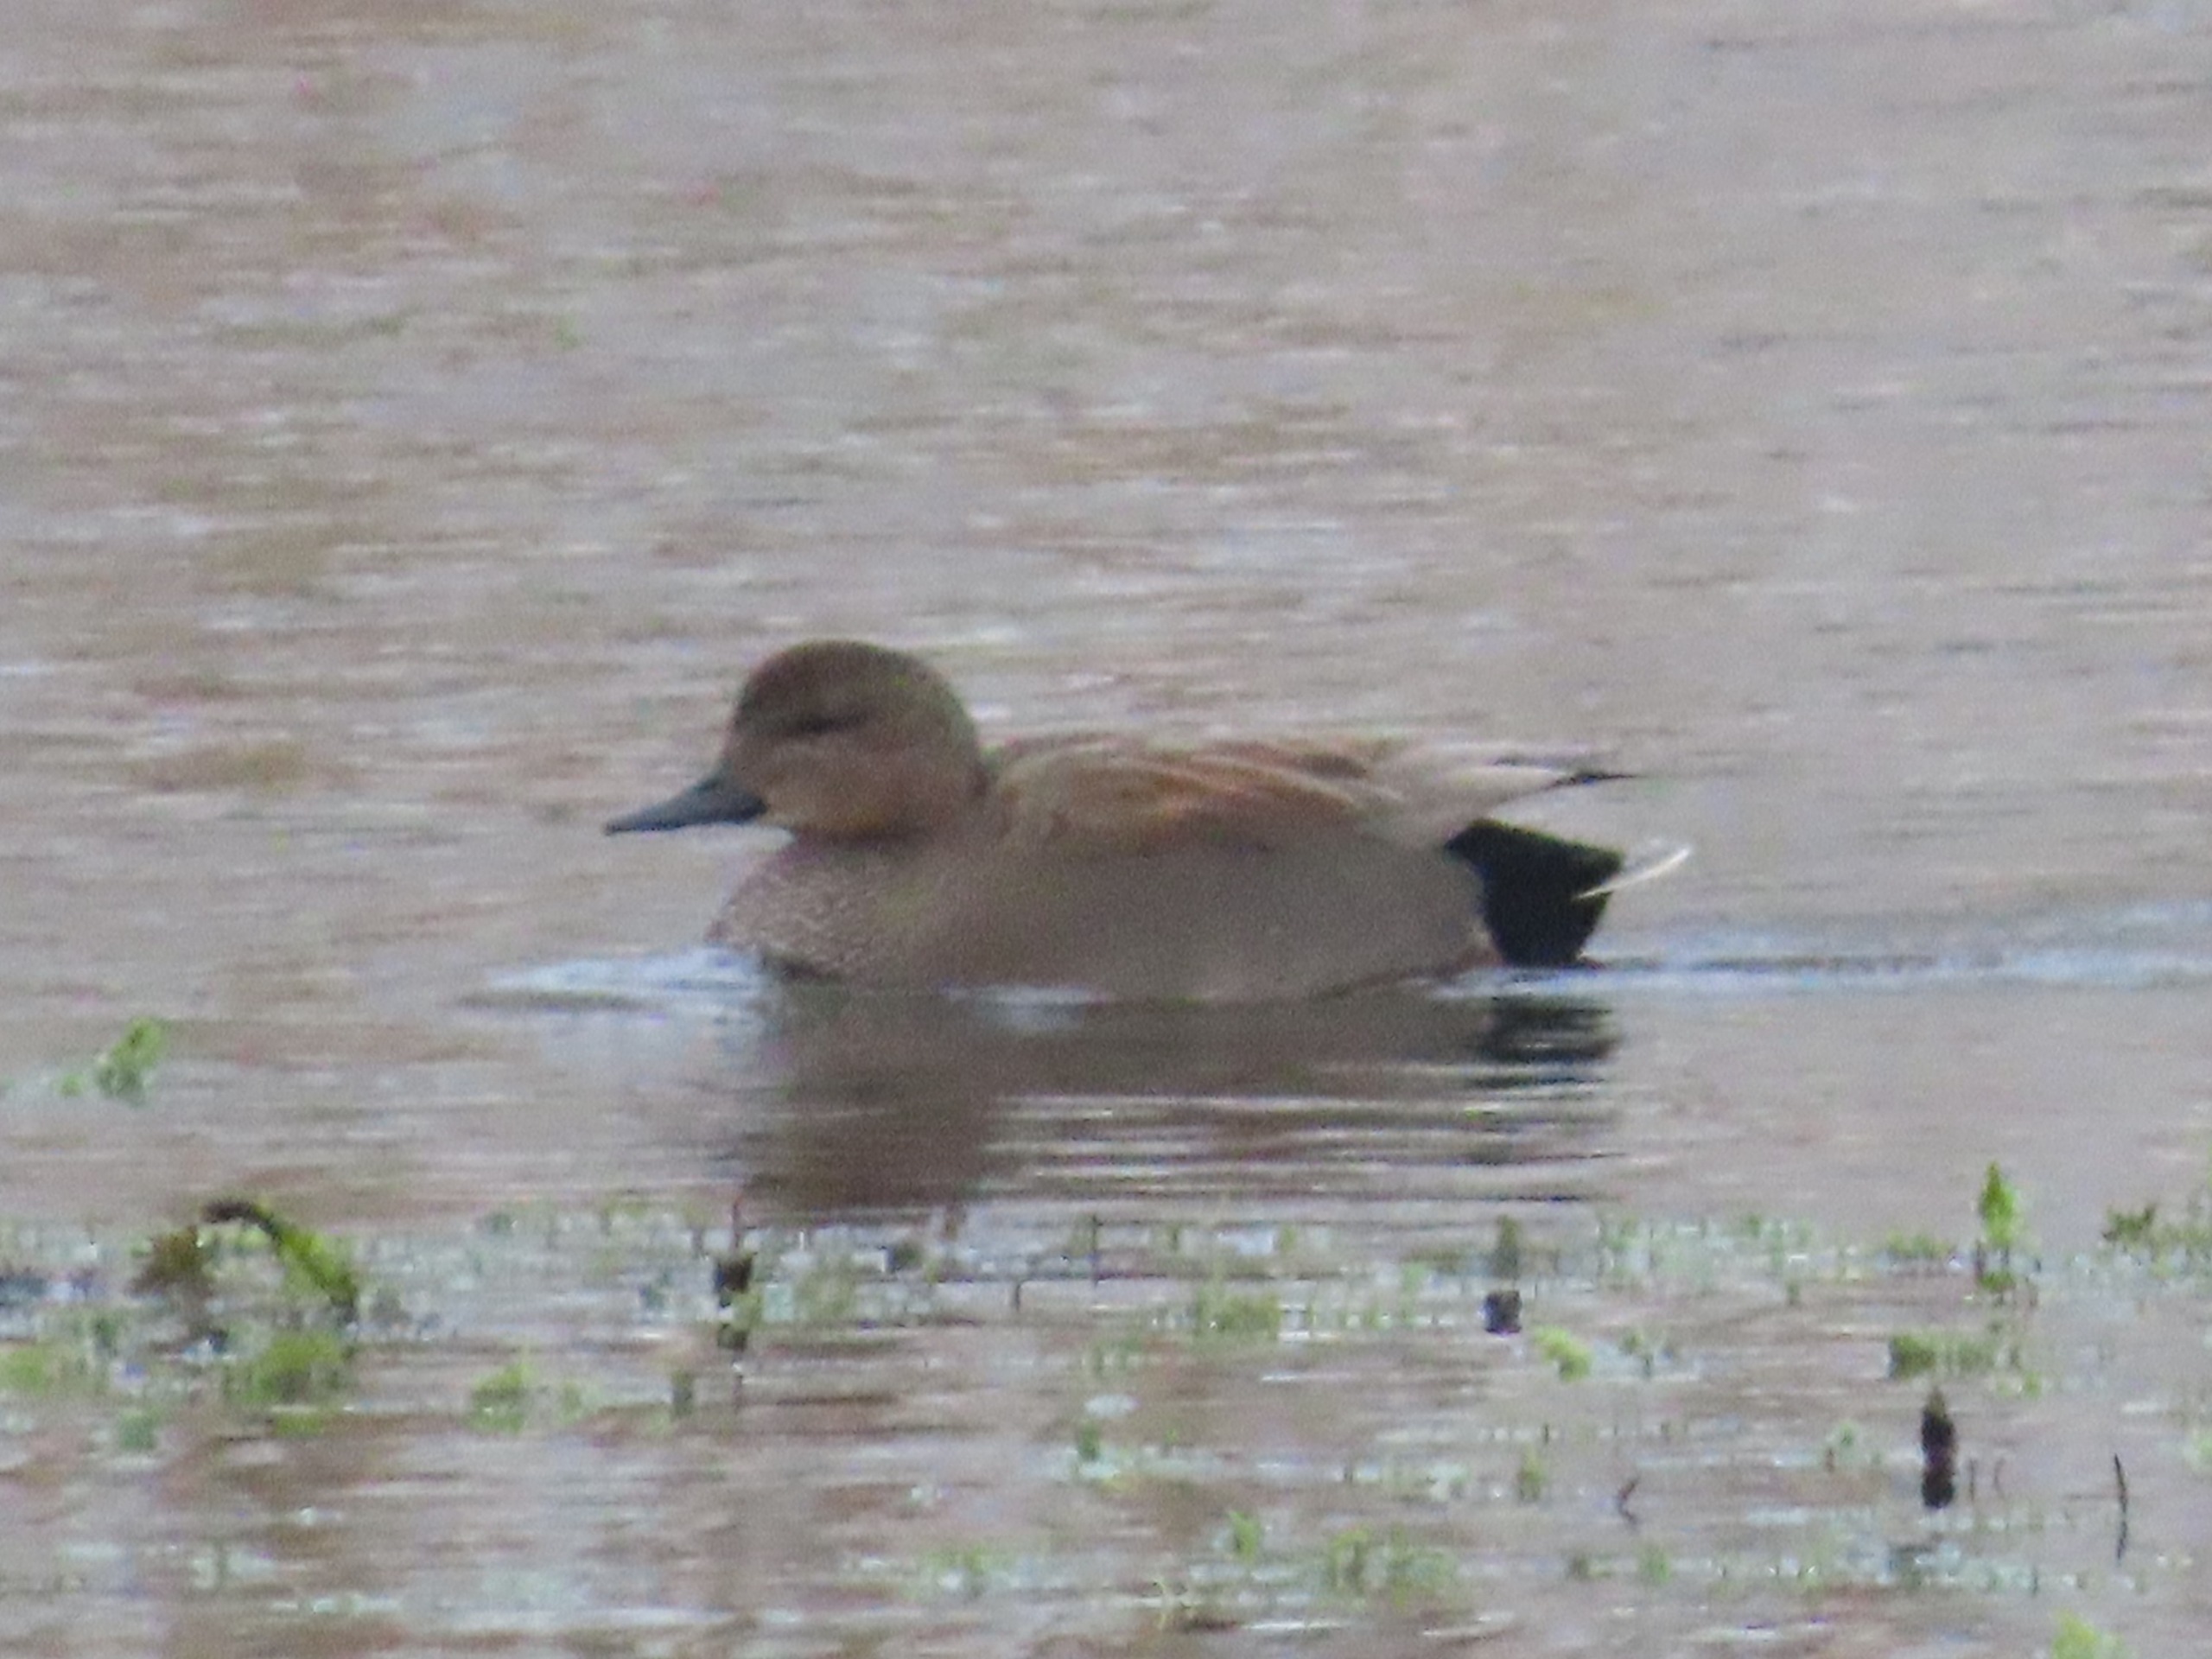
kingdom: Animalia
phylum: Chordata
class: Aves
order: Anseriformes
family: Anatidae
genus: Mareca
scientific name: Mareca strepera
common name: Knarand
